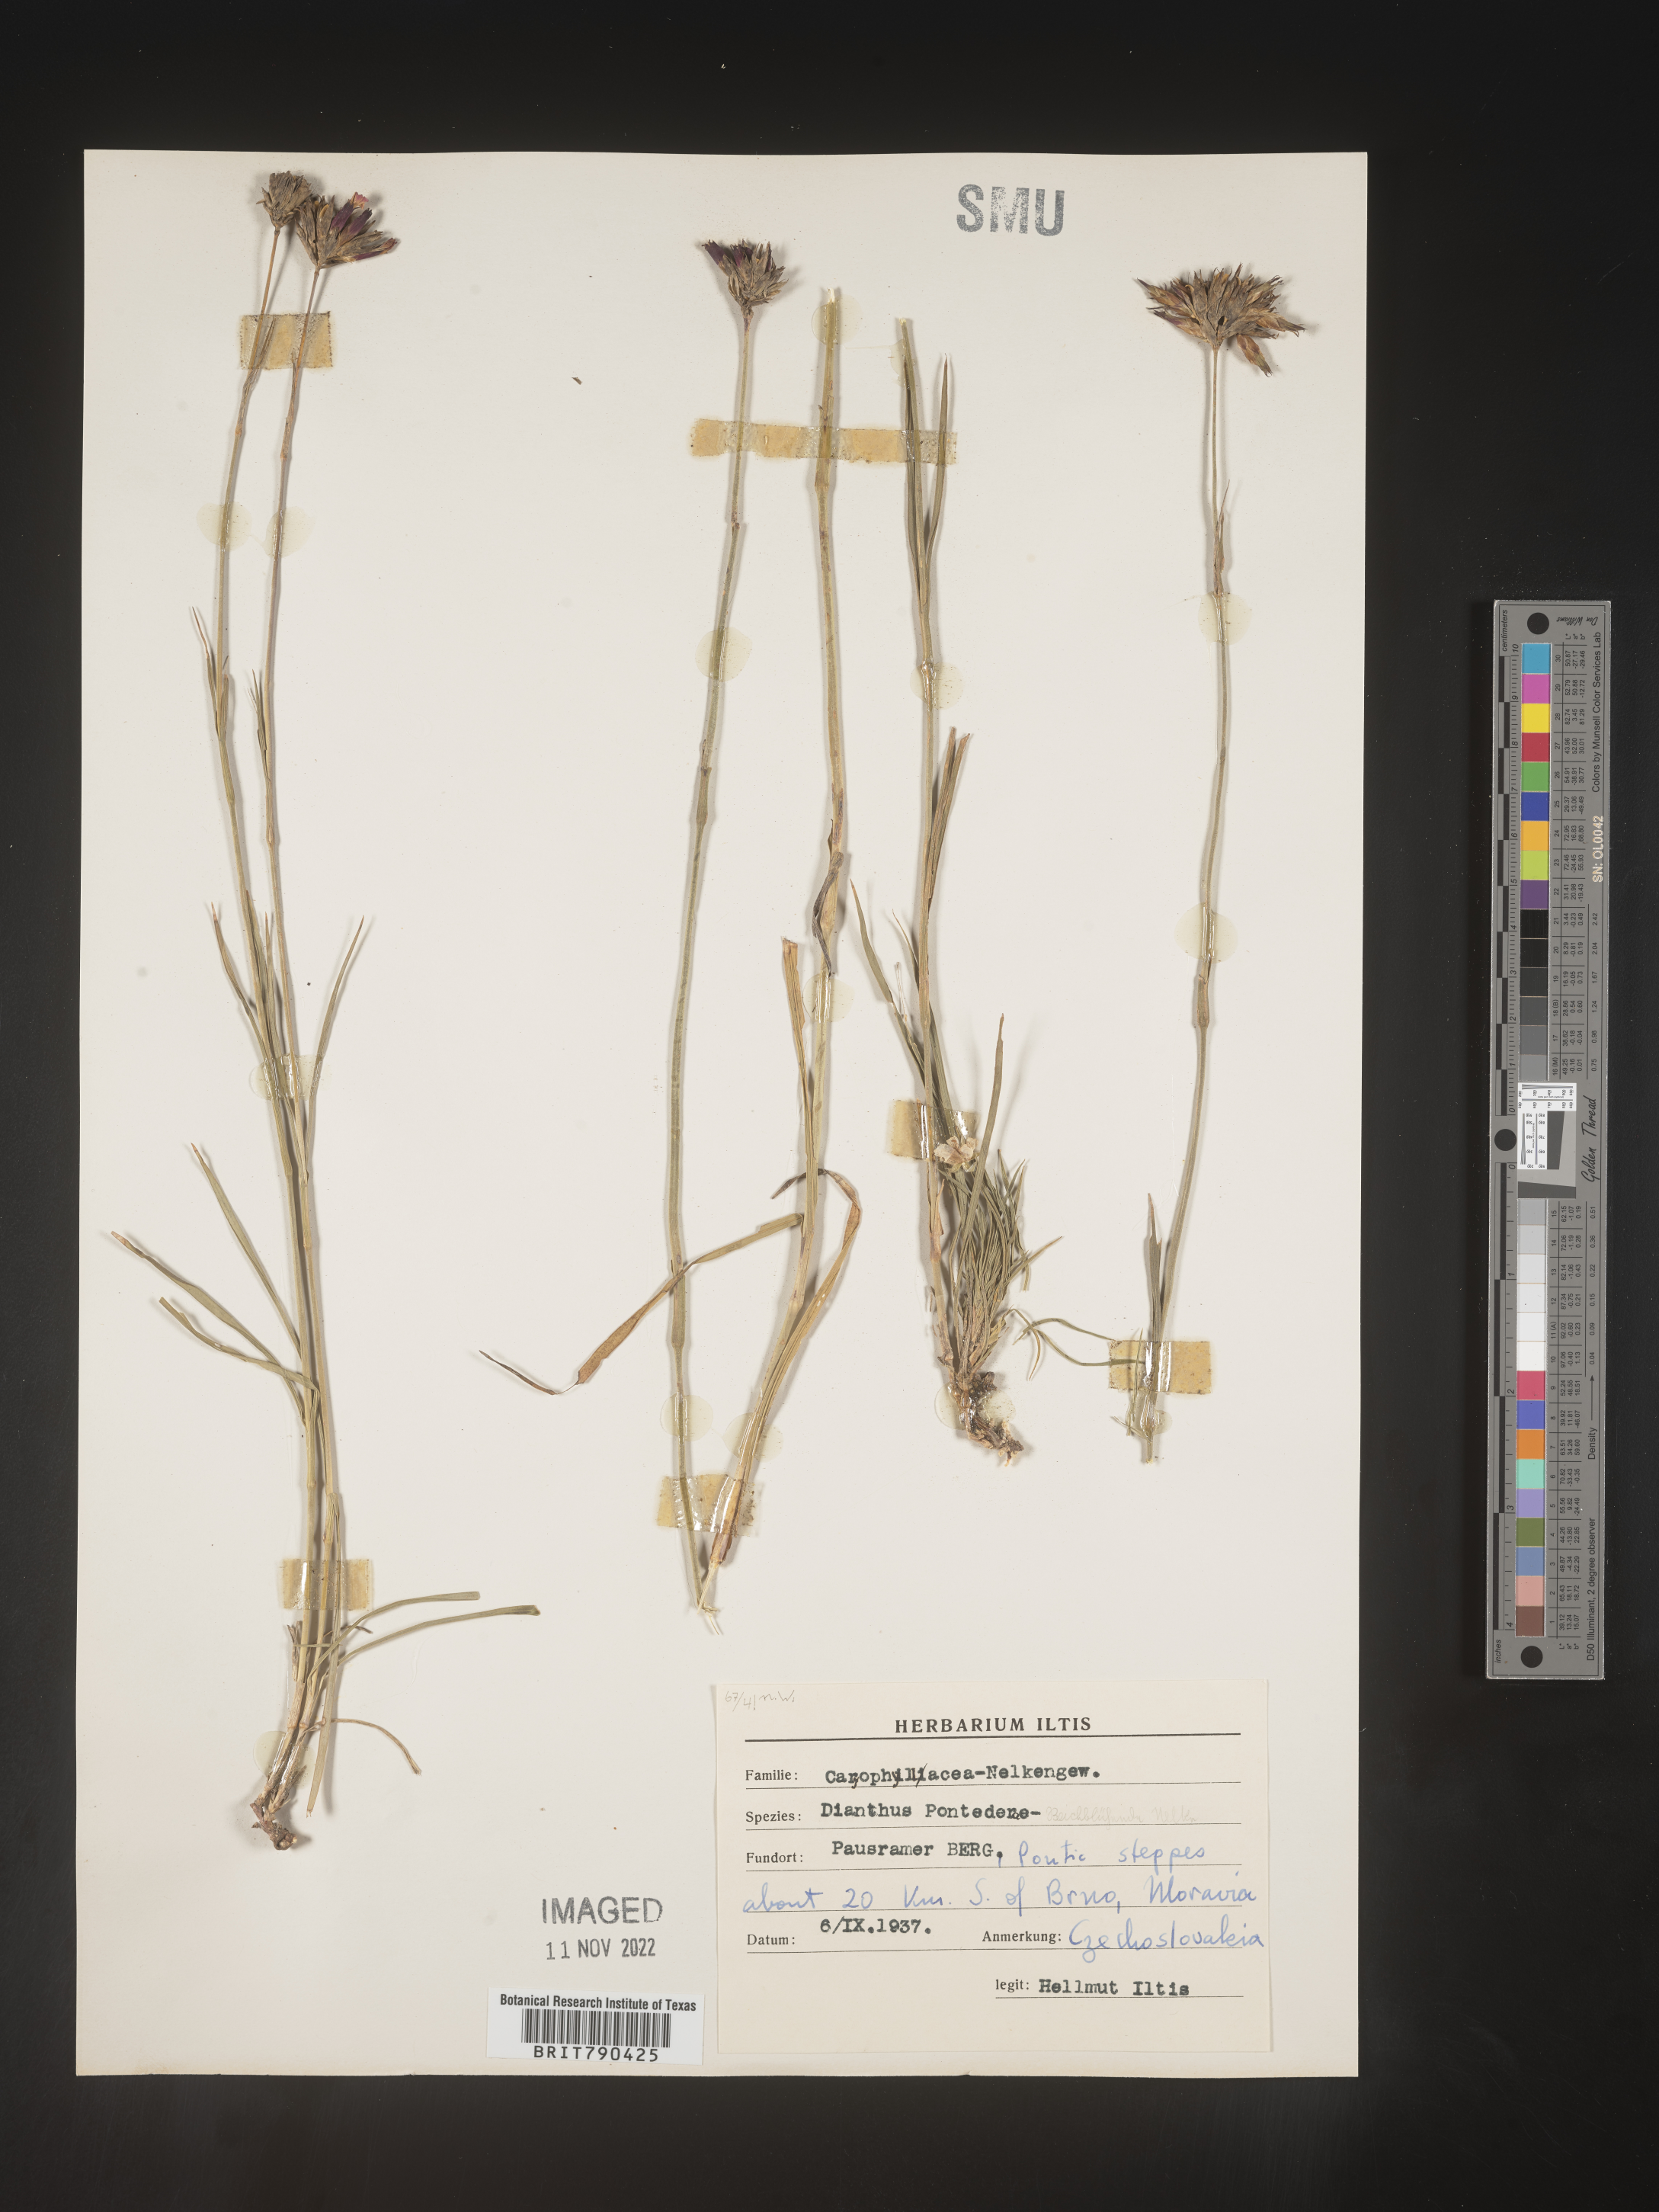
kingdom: Plantae
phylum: Tracheophyta
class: Magnoliopsida
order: Caryophyllales
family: Caryophyllaceae
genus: Dianthus
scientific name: Dianthus
